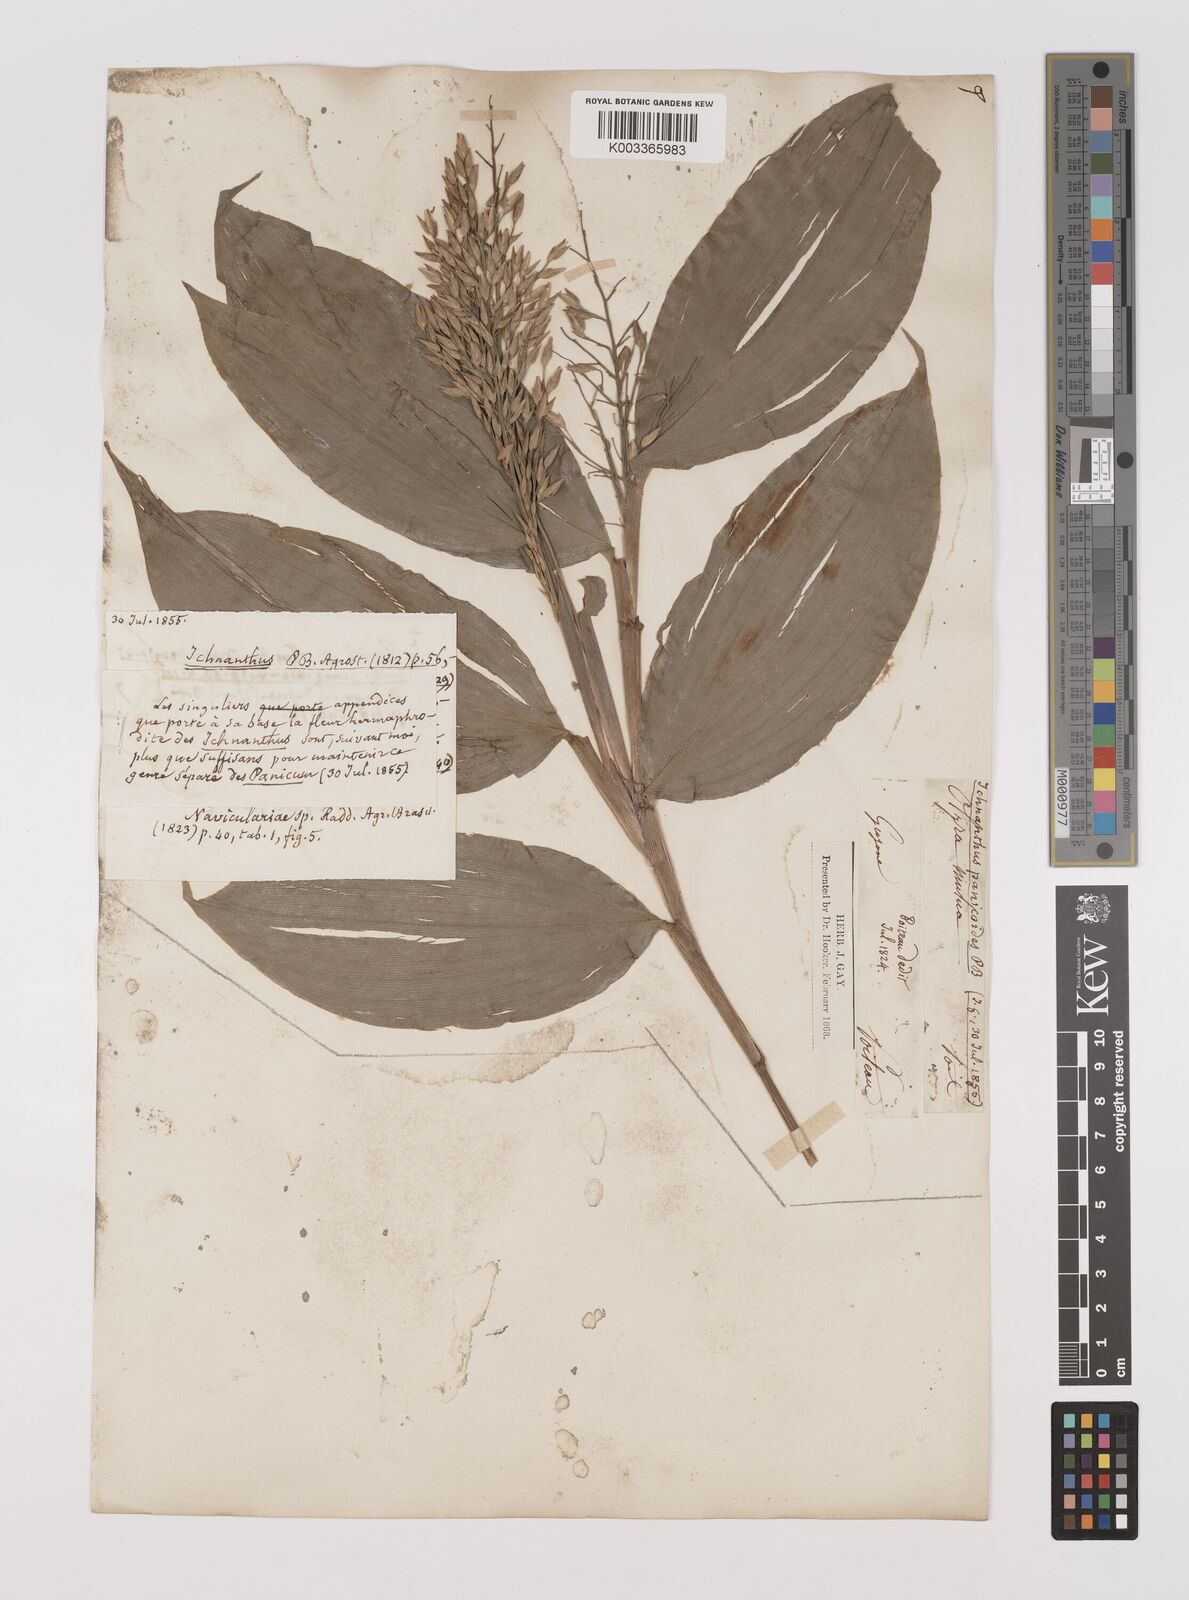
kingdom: Plantae
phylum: Tracheophyta
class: Liliopsida
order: Poales
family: Poaceae
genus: Ichnanthus
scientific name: Ichnanthus panicoides
